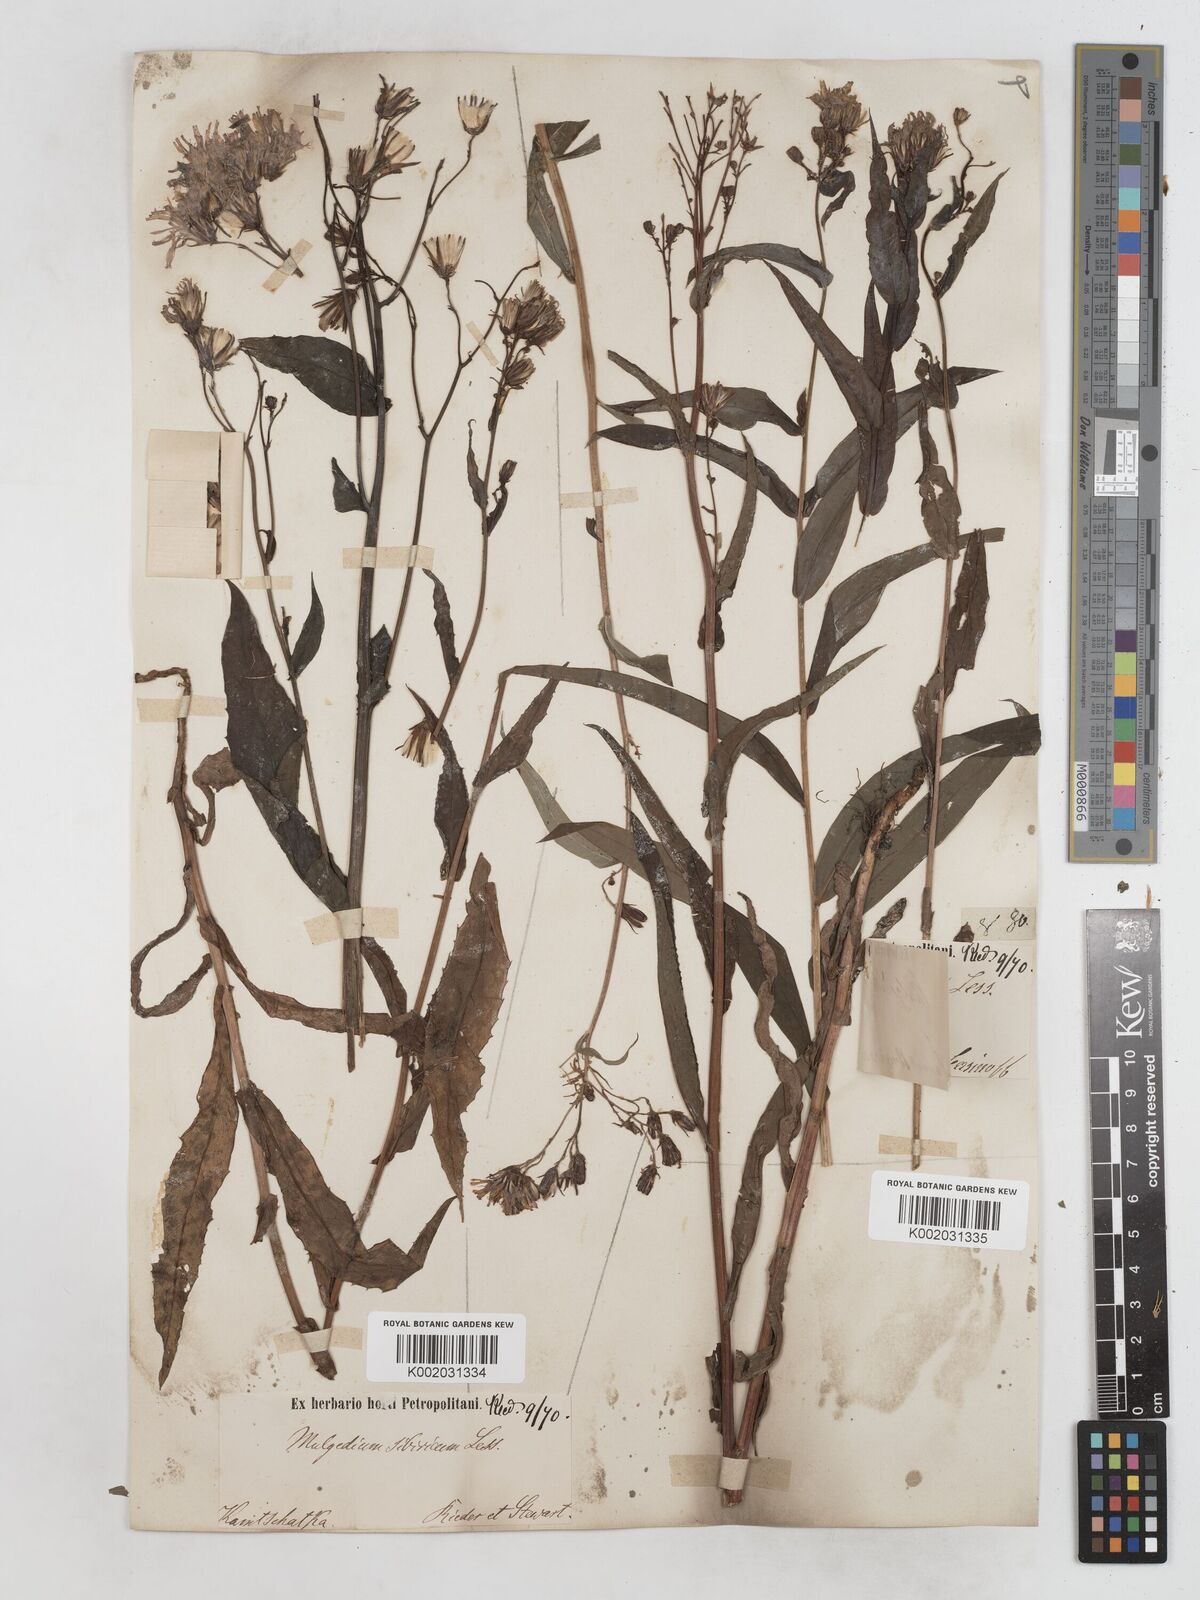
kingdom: Plantae
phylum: Tracheophyta
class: Magnoliopsida
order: Asterales
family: Asteraceae
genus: Lactuca
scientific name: Lactuca sibirica
